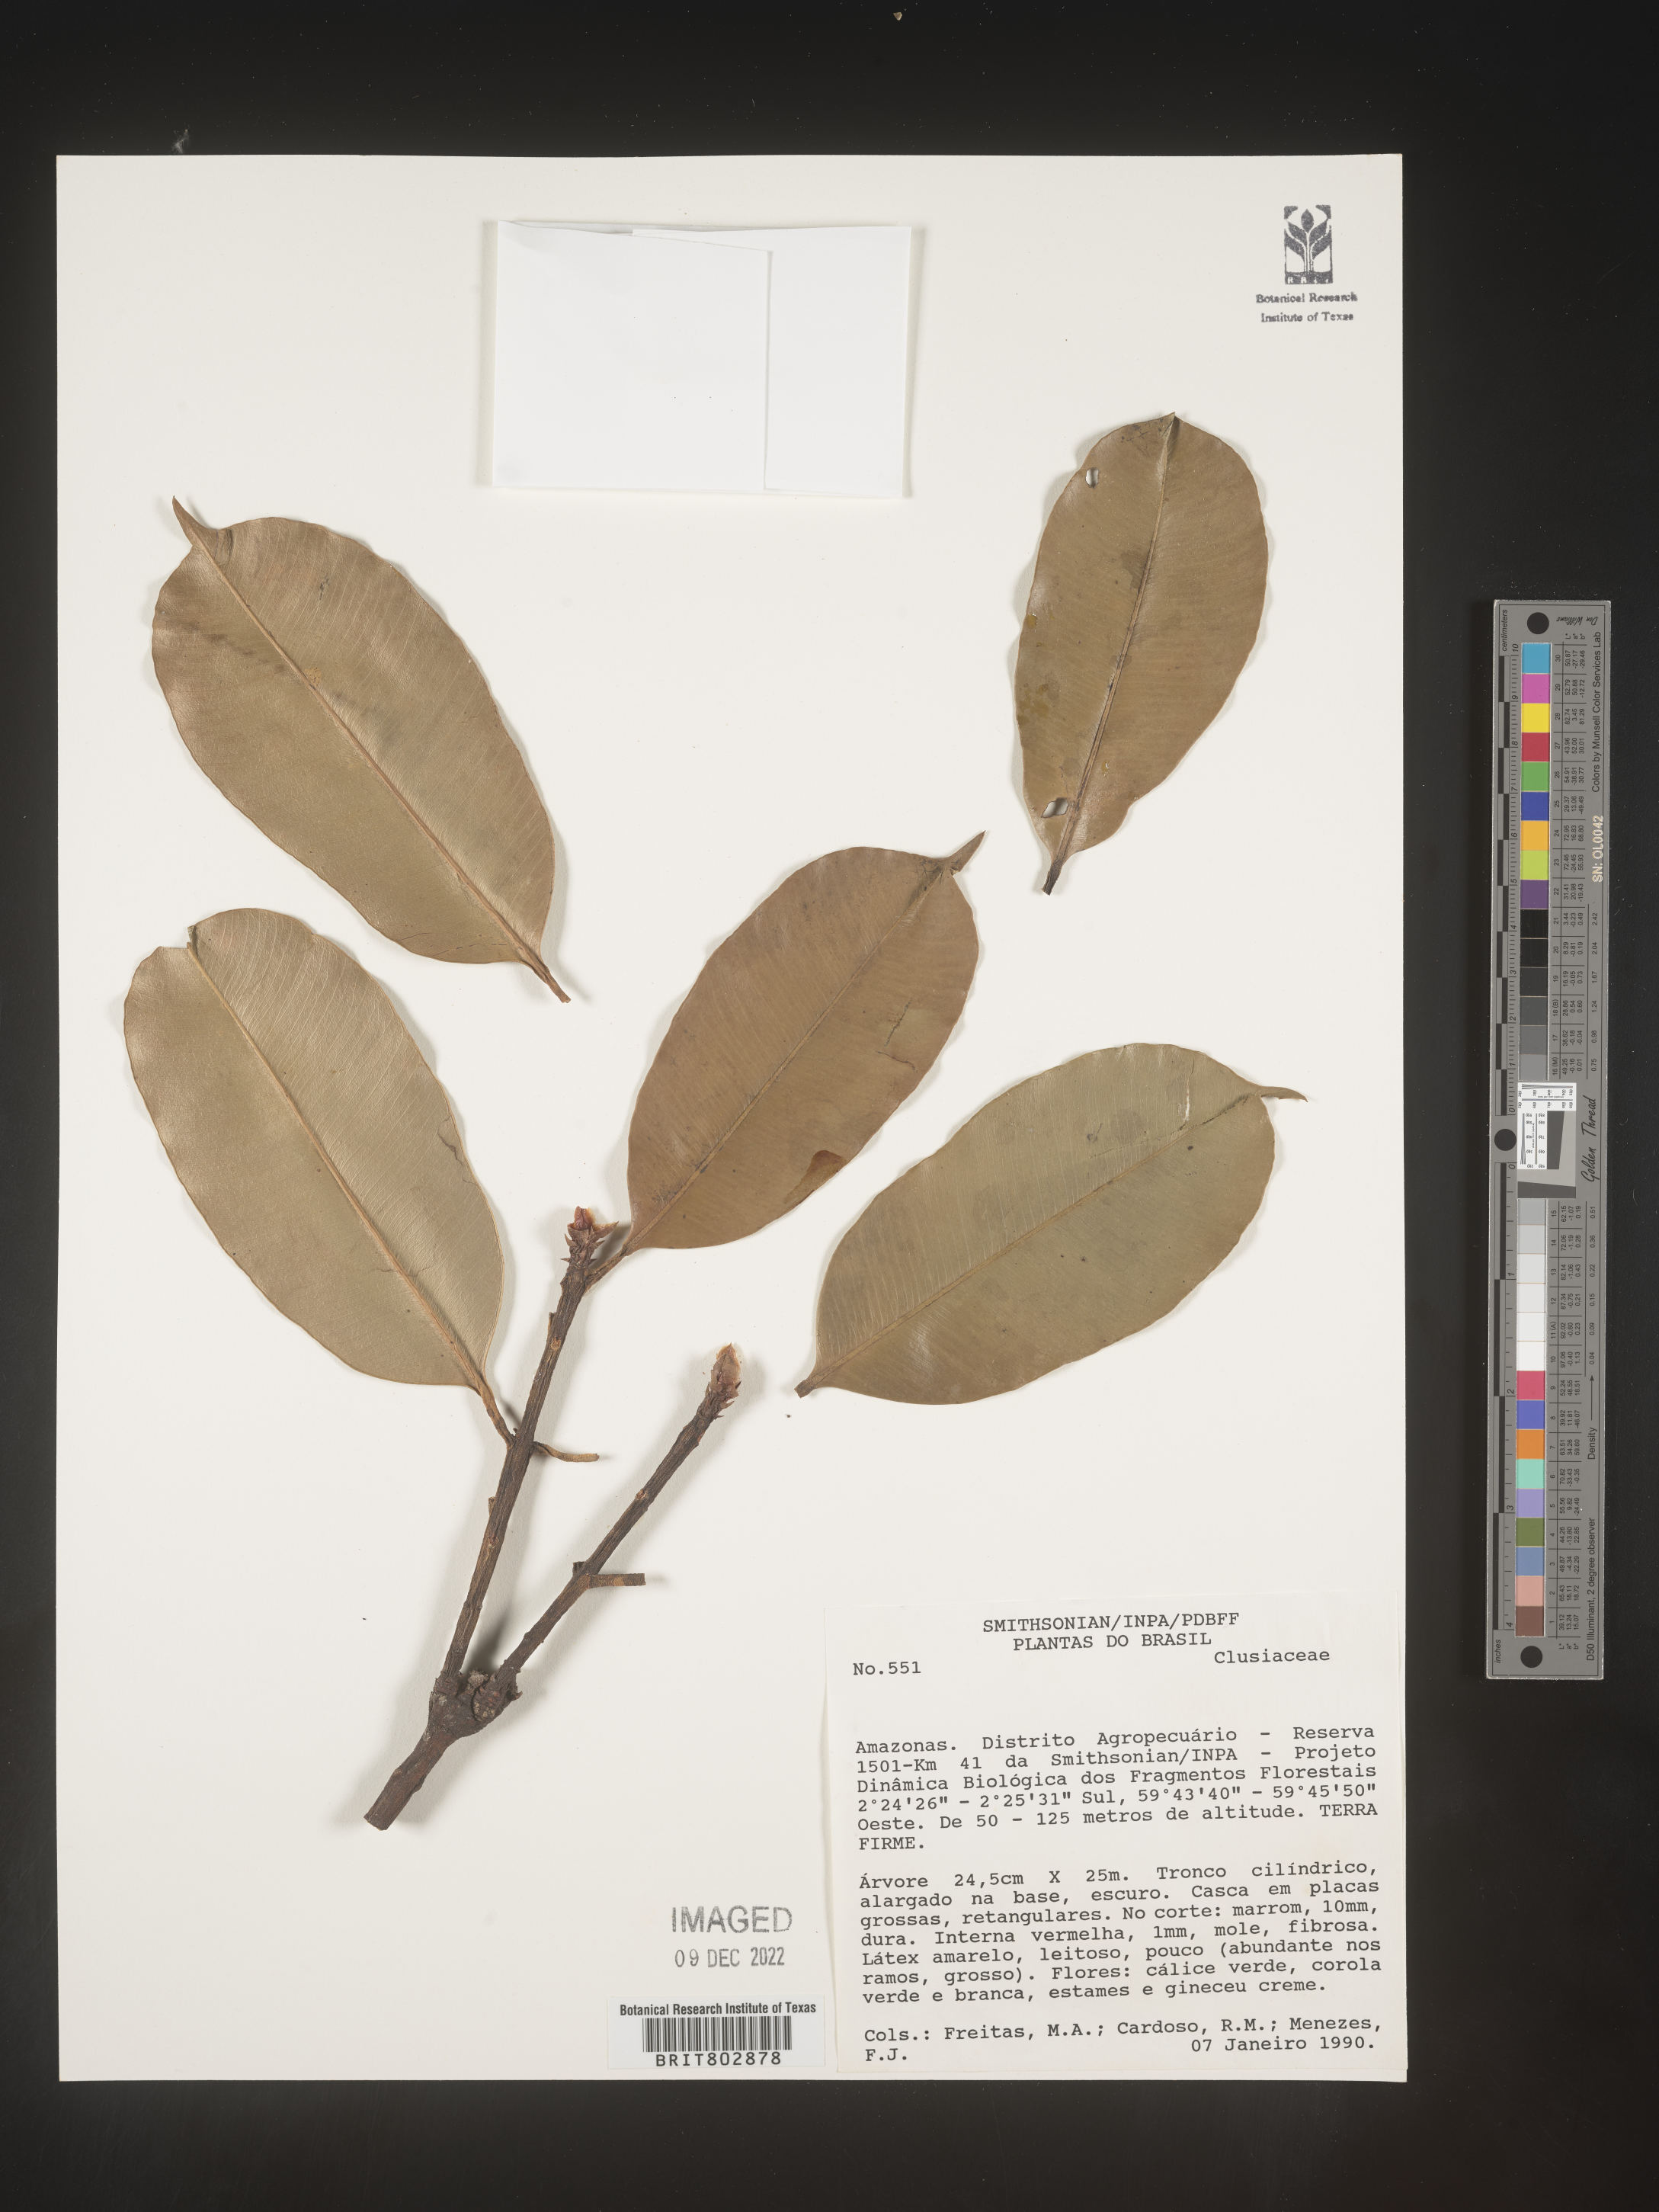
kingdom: Plantae
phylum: Tracheophyta
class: Magnoliopsida
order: Malpighiales
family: Clusiaceae
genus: Lorostemon
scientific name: Lorostemon
